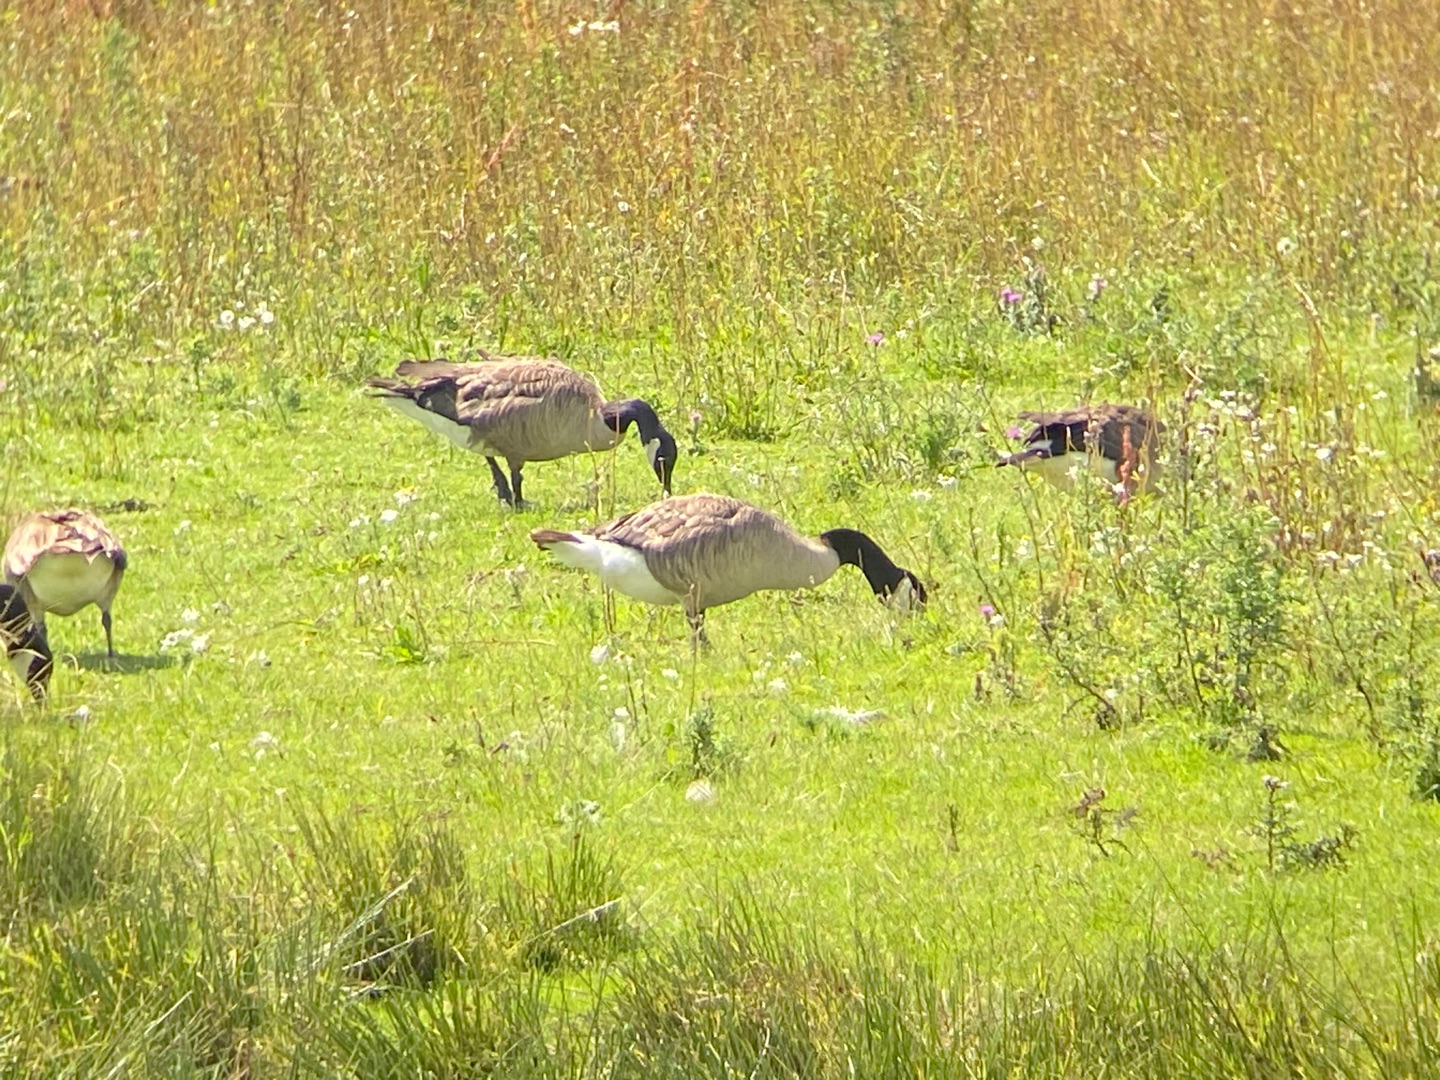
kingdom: Animalia
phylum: Chordata
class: Aves
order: Anseriformes
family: Anatidae
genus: Branta
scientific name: Branta canadensis
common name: Canadagås
